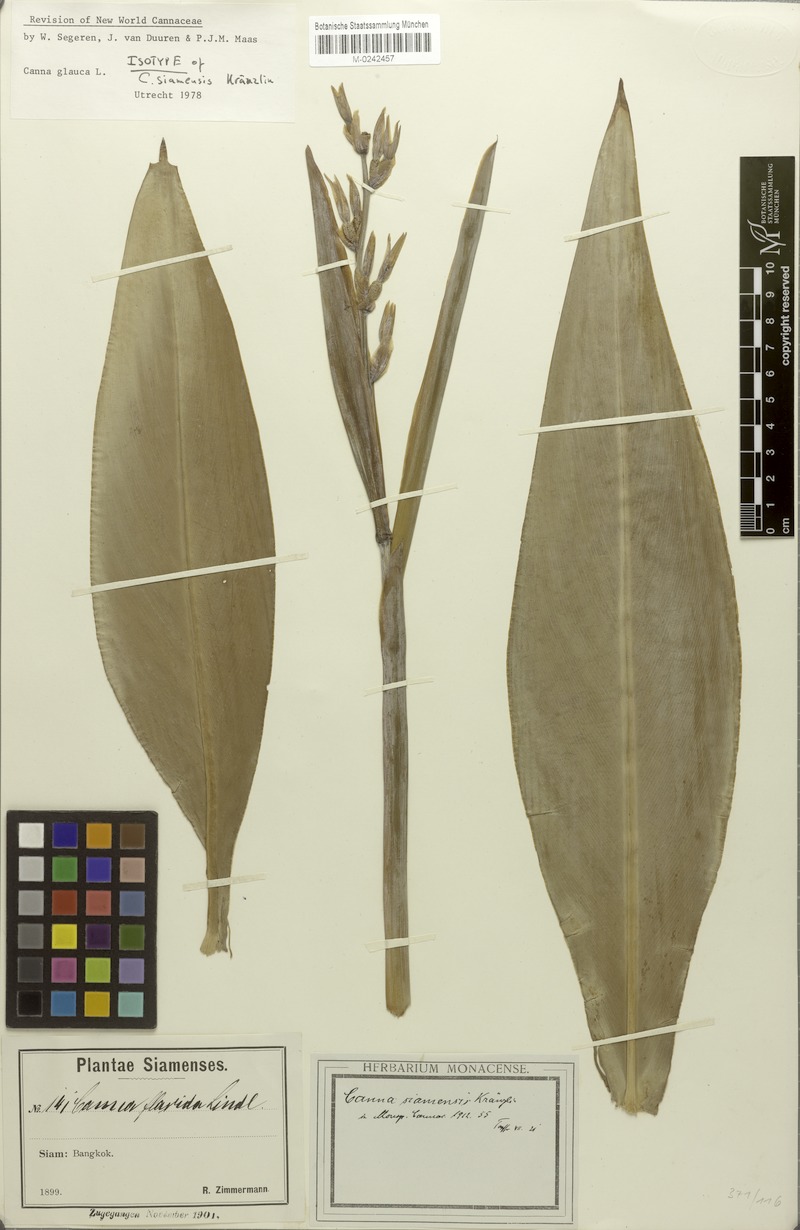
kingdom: Plantae
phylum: Tracheophyta
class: Liliopsida
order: Zingiberales
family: Cannaceae
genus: Canna
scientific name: Canna glauca
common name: Louisiana canna
